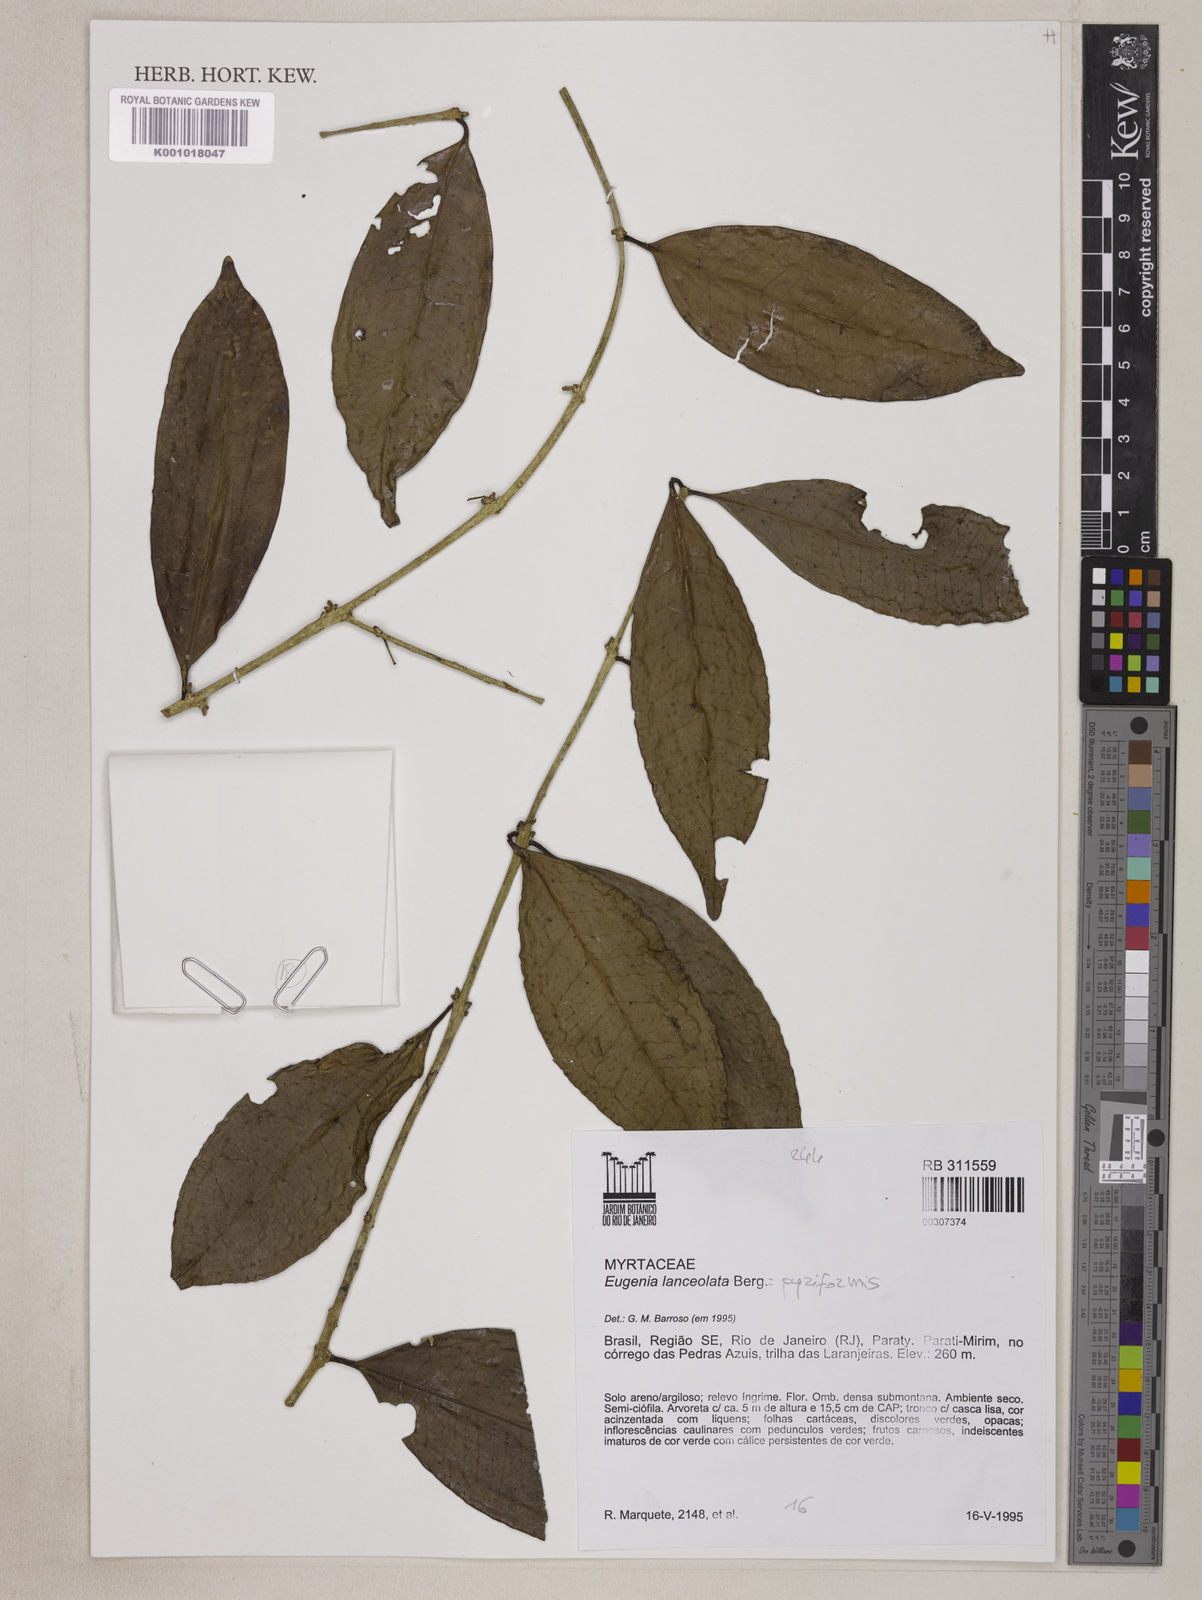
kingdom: Plantae
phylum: Tracheophyta
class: Magnoliopsida
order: Myrtales
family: Myrtaceae
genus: Eugenia
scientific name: Eugenia pyriformis
